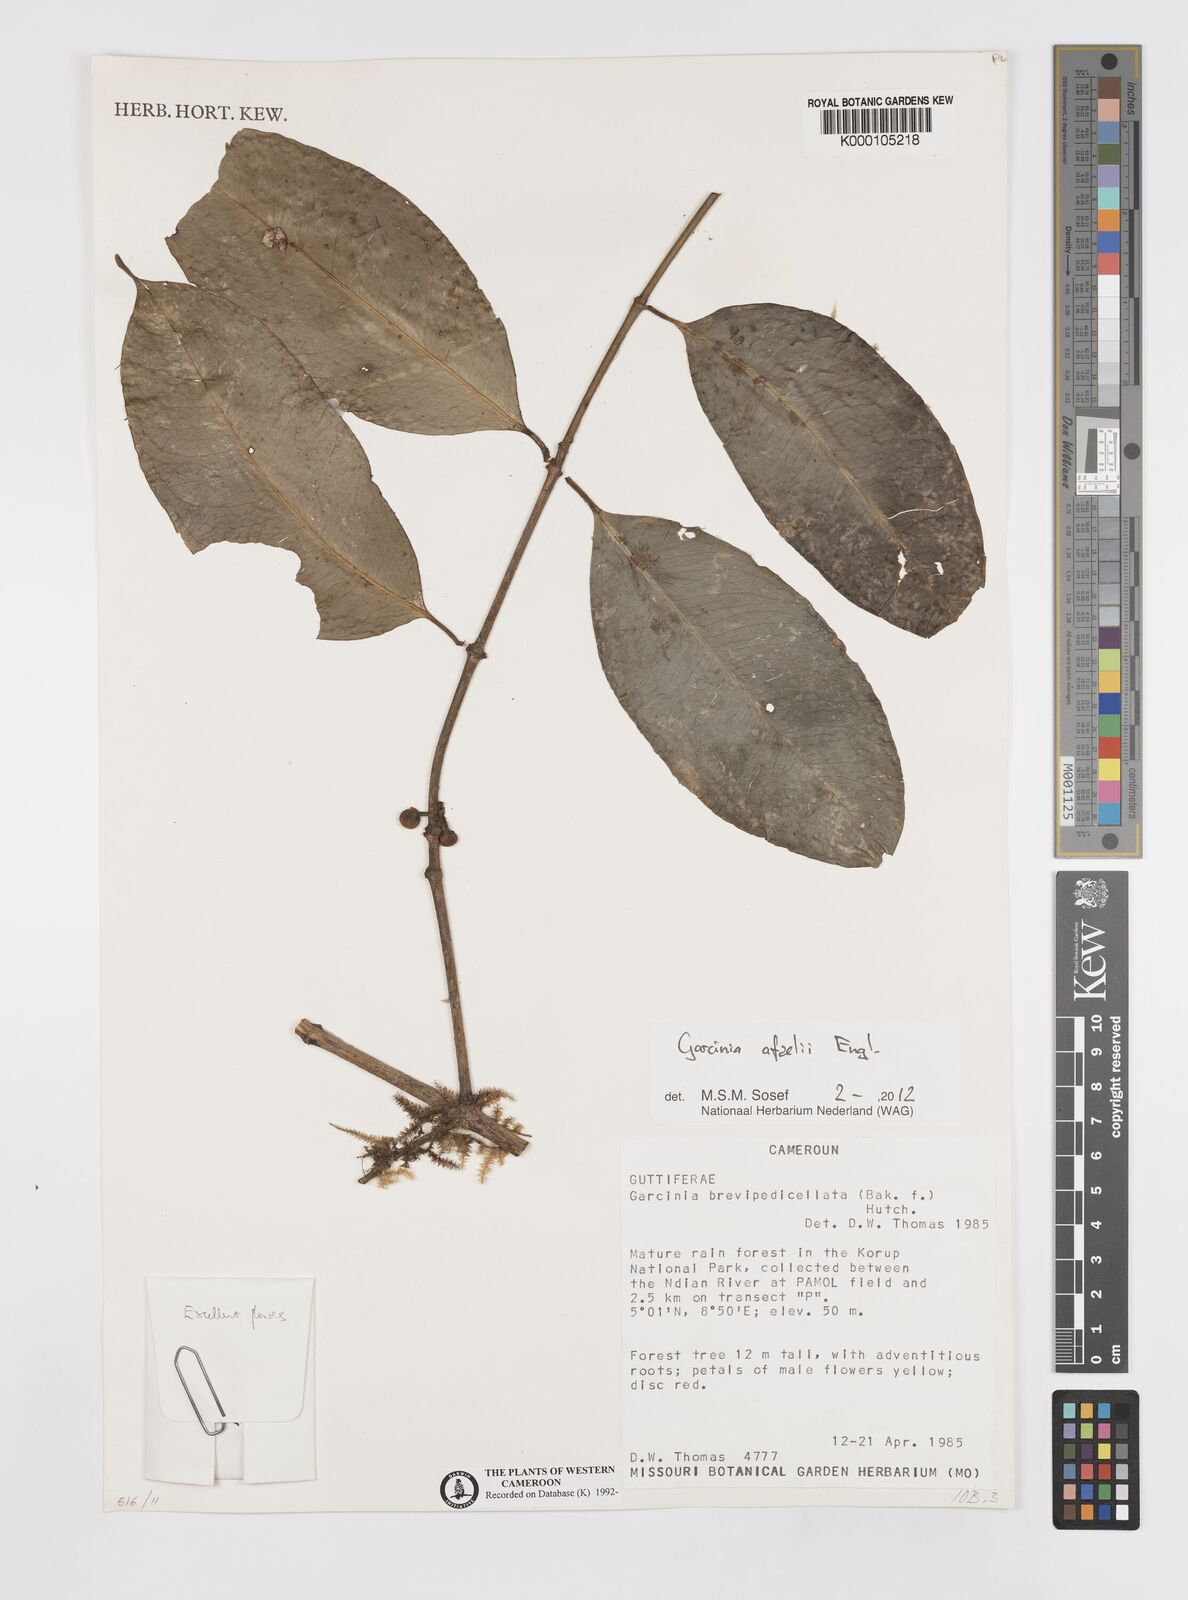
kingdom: Plantae
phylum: Tracheophyta
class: Magnoliopsida
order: Malpighiales
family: Clusiaceae
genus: Garcinia
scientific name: Garcinia brevipedicellata
